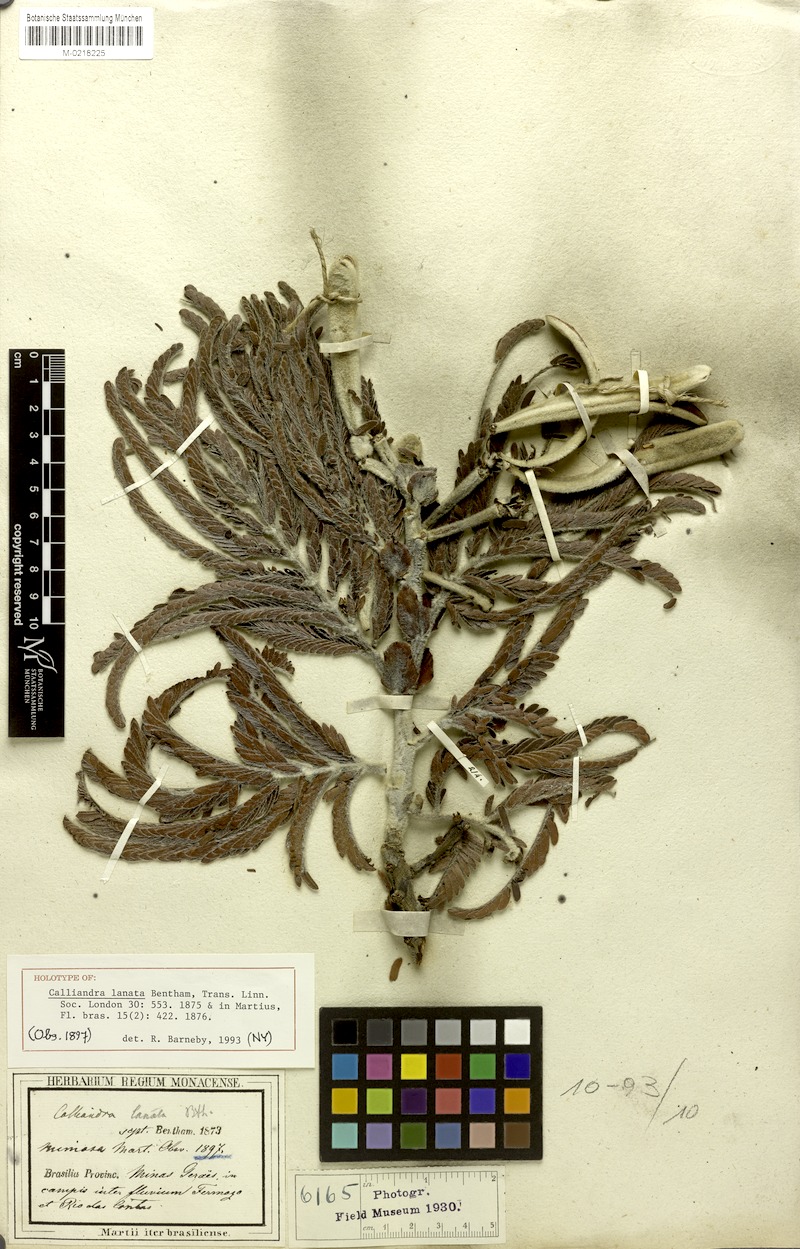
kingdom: Plantae
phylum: Tracheophyta
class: Magnoliopsida
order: Fabales
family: Fabaceae
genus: Calliandra
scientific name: Calliandra lanata
